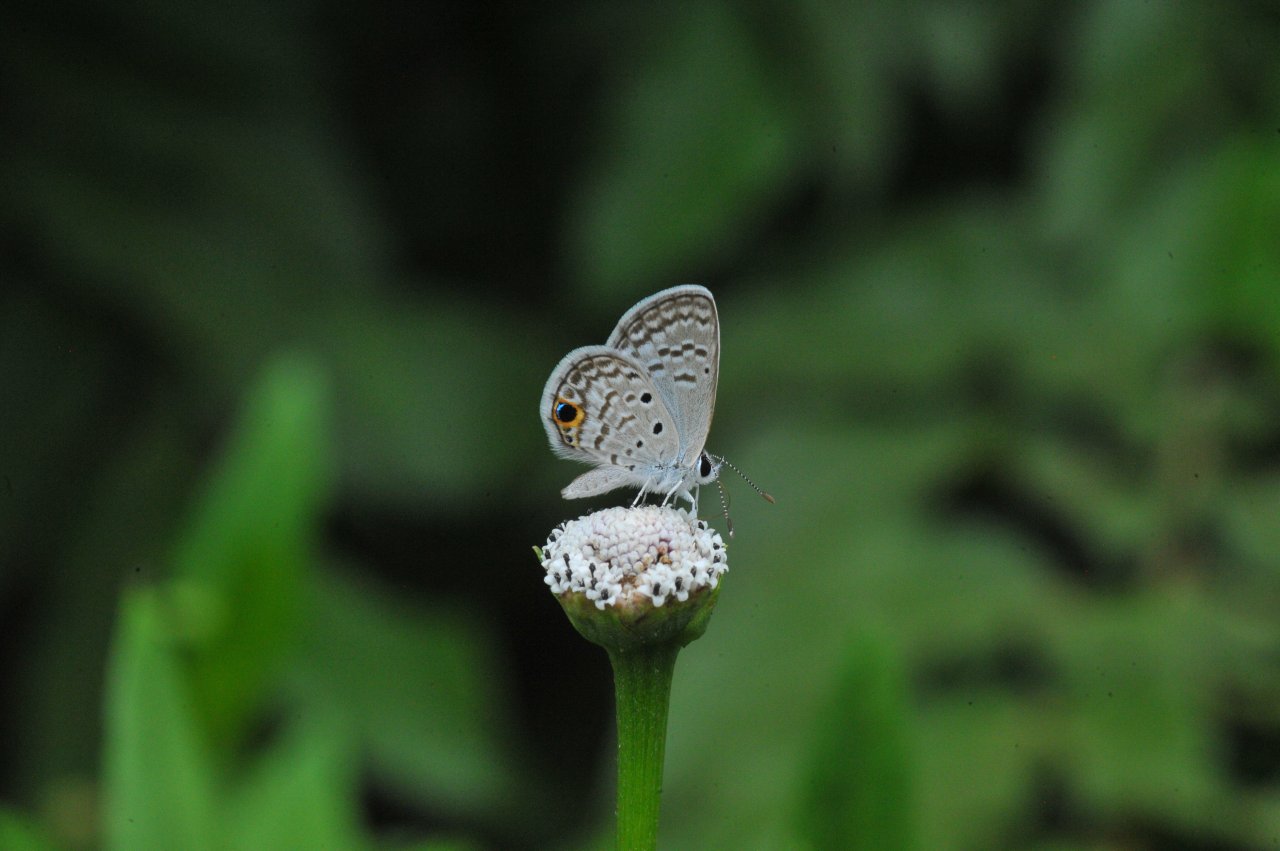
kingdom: Animalia
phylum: Arthropoda
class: Insecta
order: Lepidoptera
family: Lycaenidae
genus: Hemiargus
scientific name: Hemiargus ceraunus
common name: Ceraunus Blue
